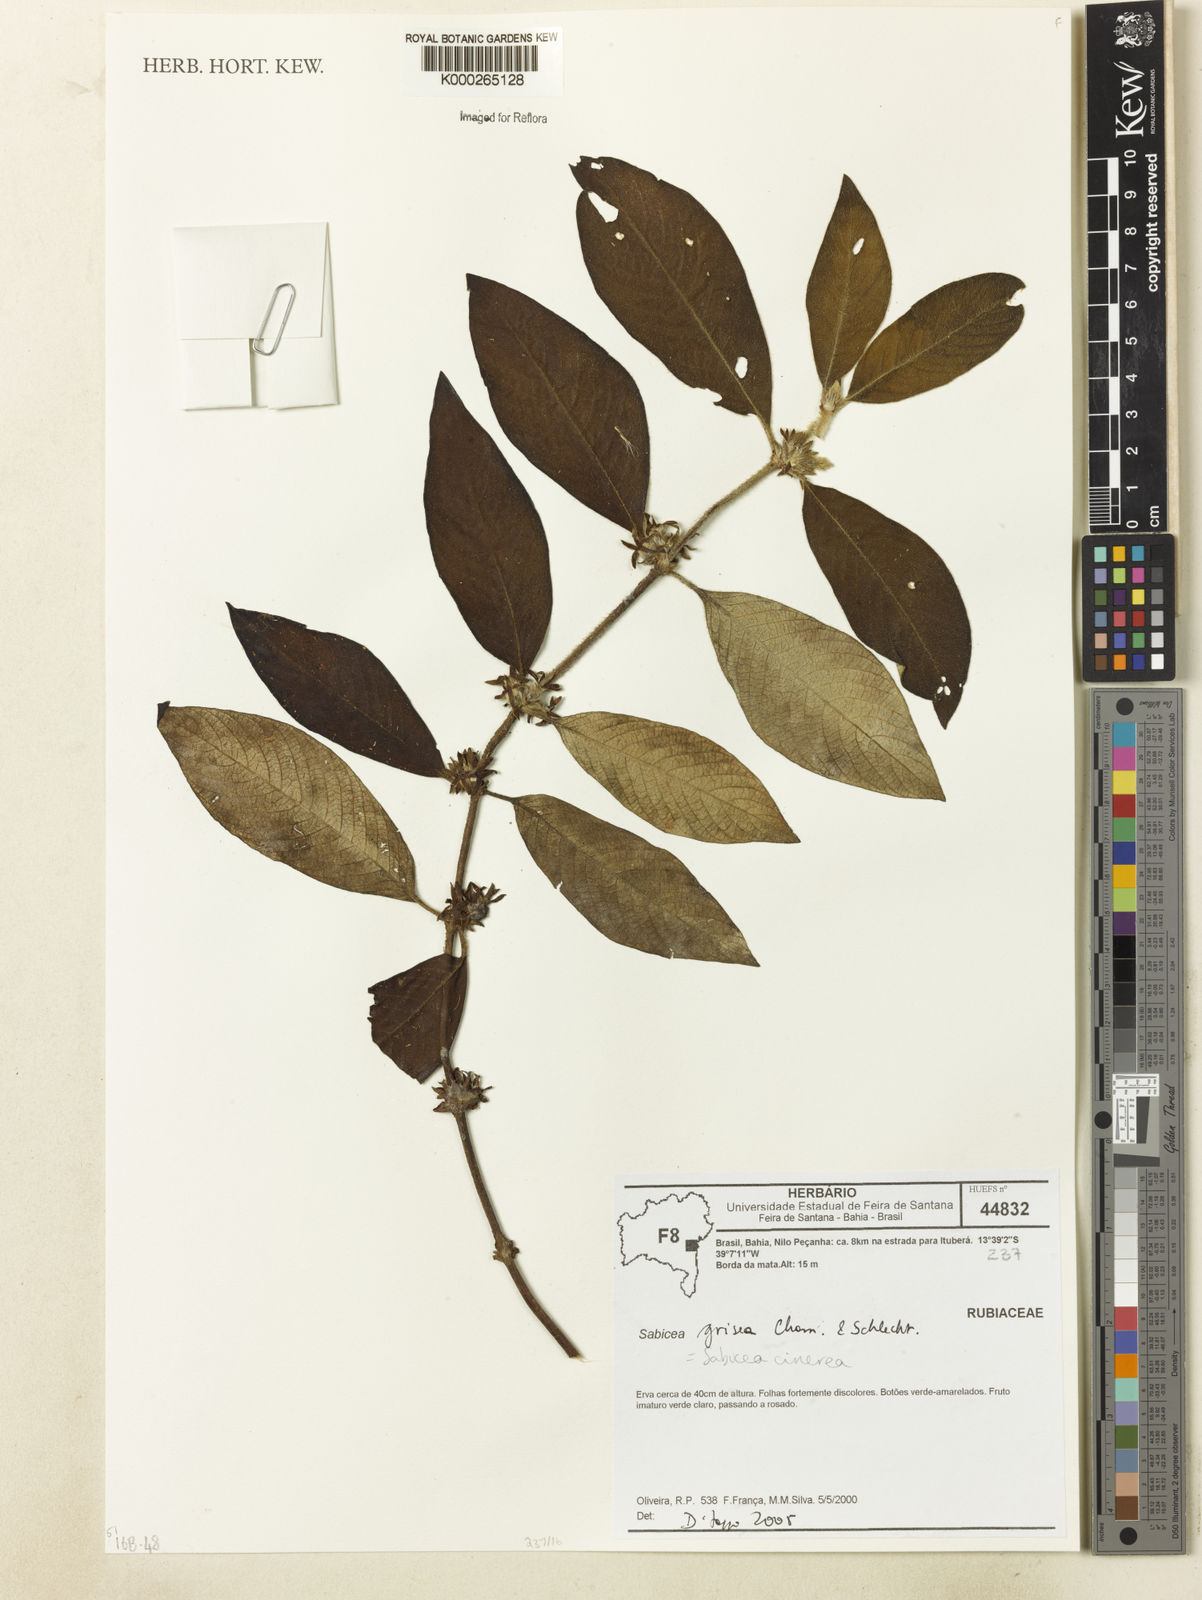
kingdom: Plantae
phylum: Tracheophyta
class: Magnoliopsida
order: Gentianales
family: Rubiaceae
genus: Sabicea
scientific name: Sabicea cinerea
